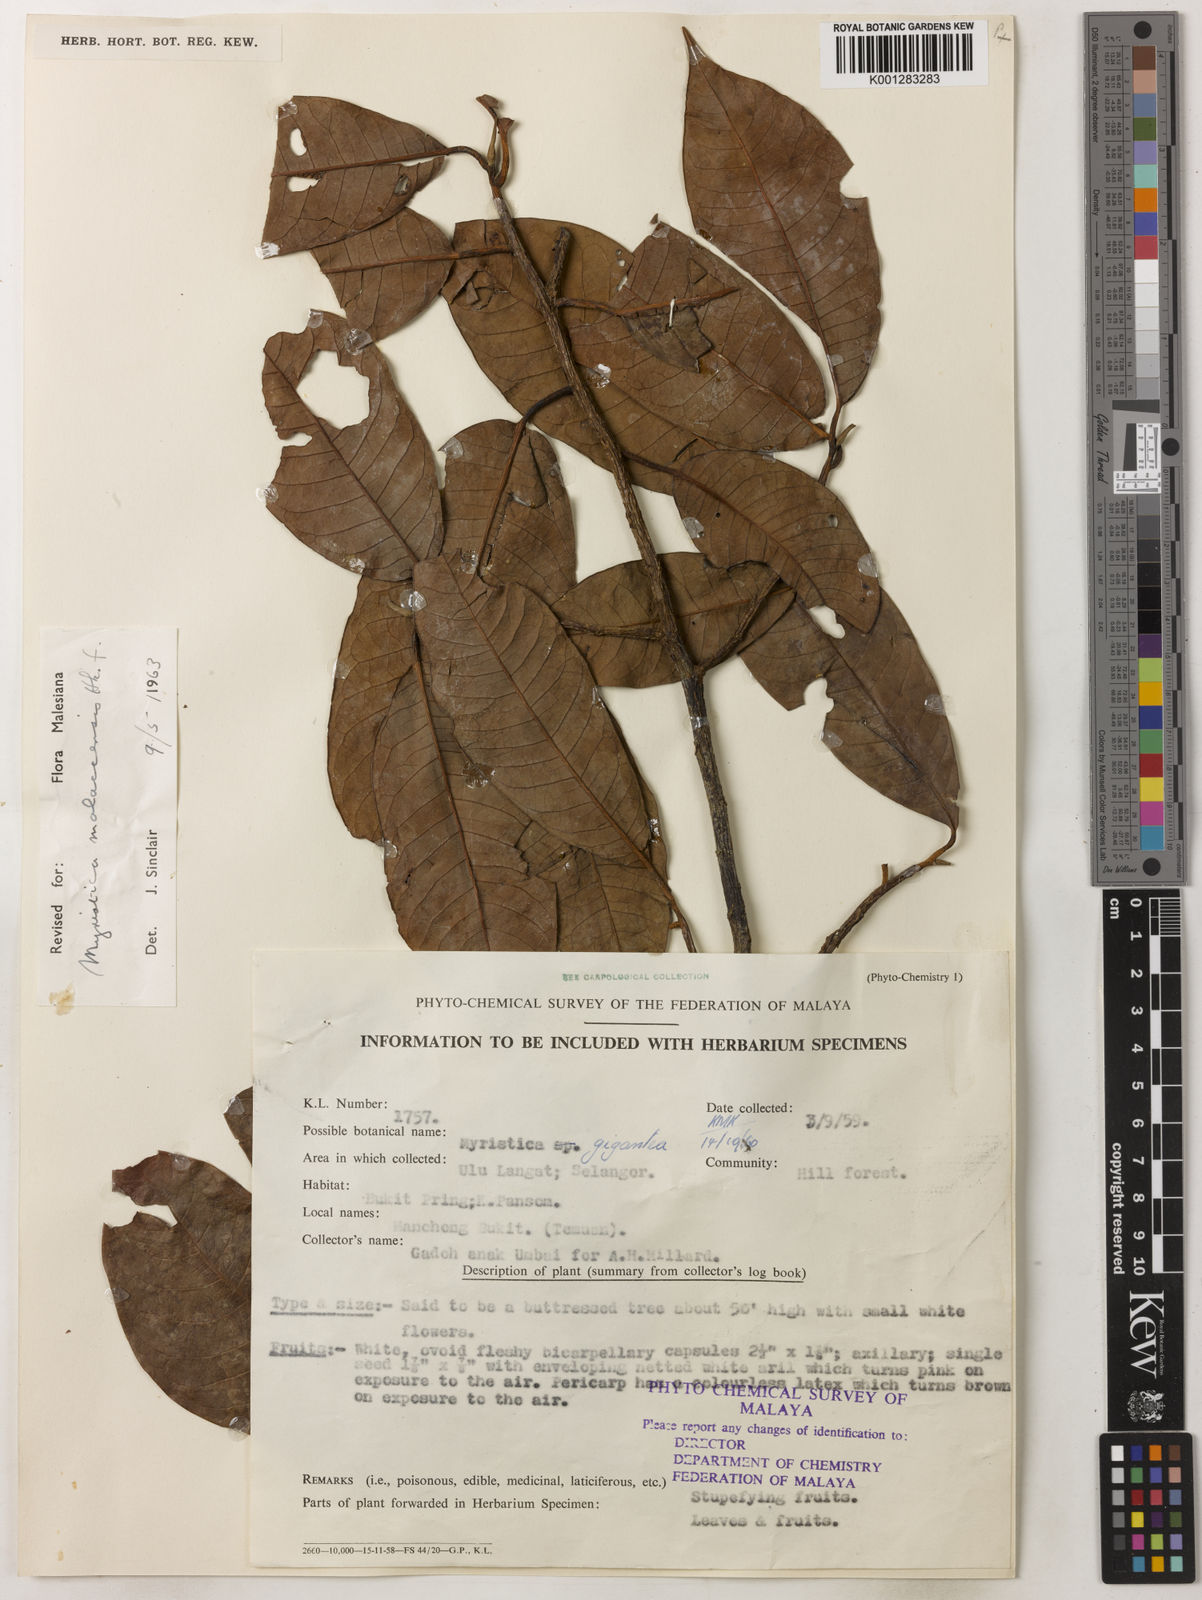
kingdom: Plantae
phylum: Tracheophyta
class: Magnoliopsida
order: Magnoliales
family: Myristicaceae
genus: Myristica
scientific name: Myristica malaccensis
